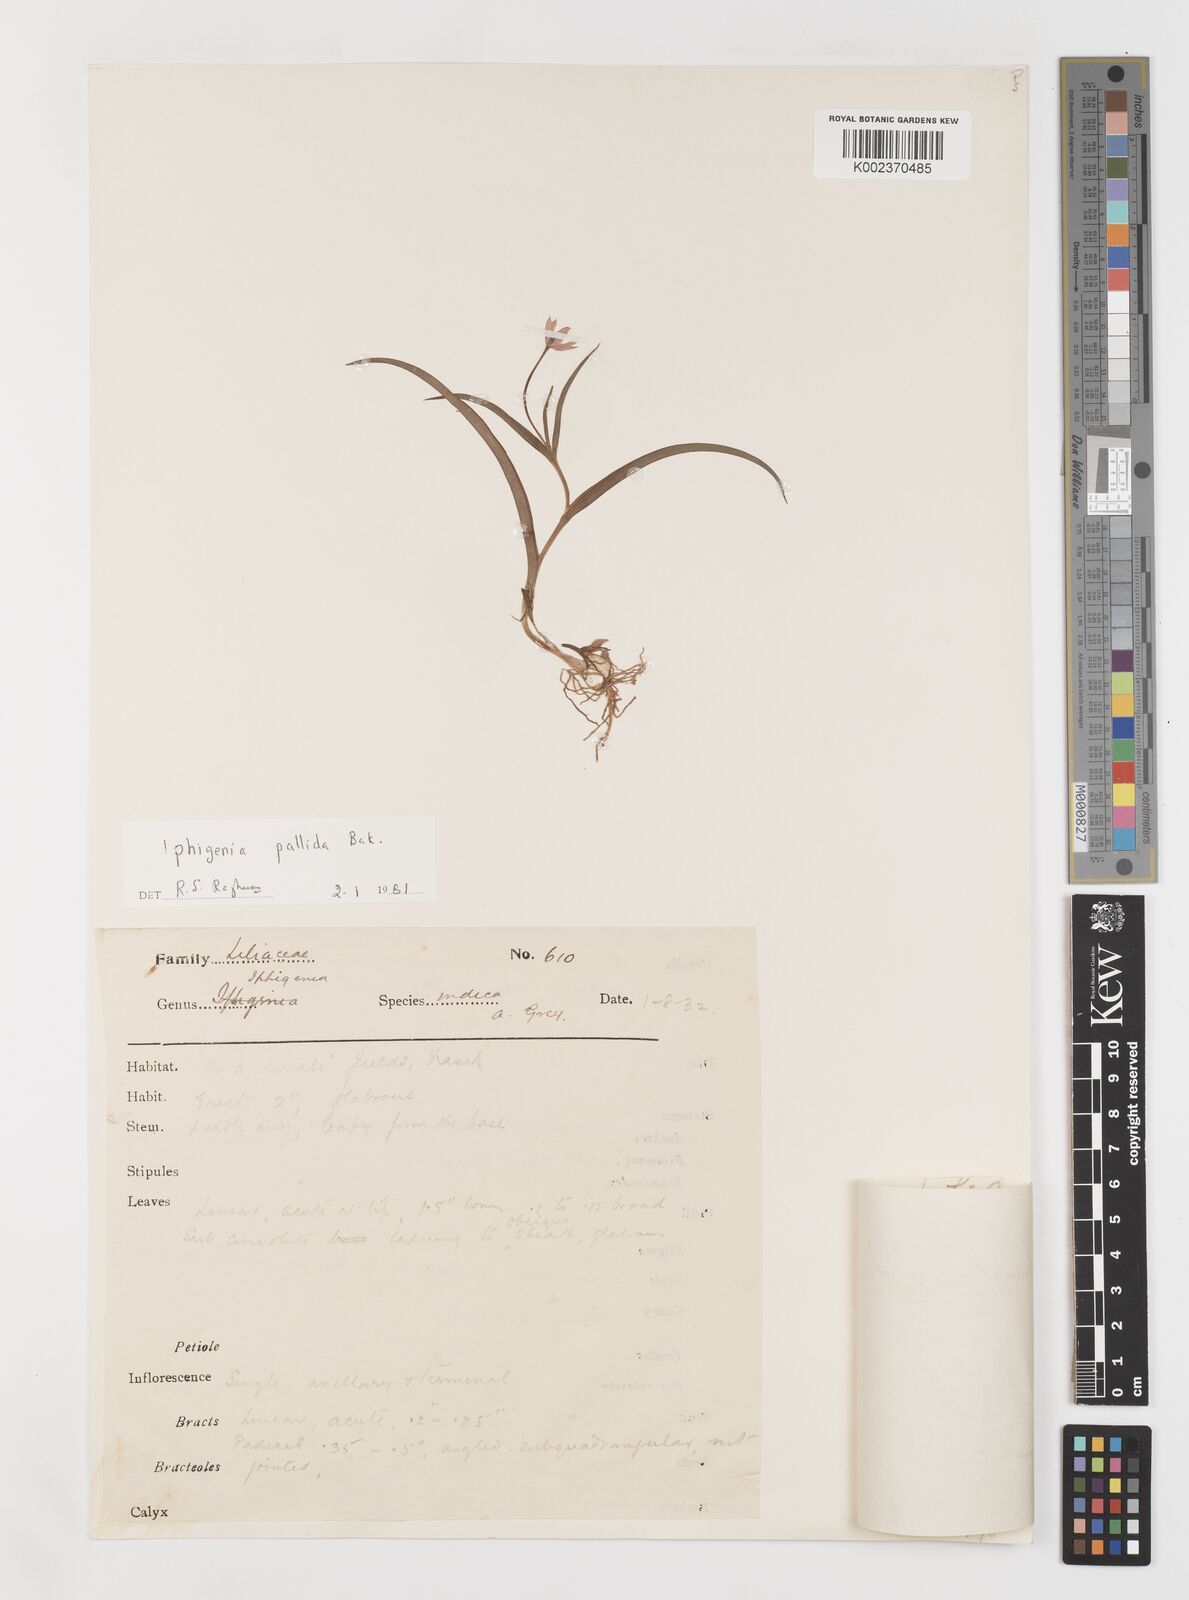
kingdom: Plantae
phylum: Tracheophyta
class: Liliopsida
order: Liliales
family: Colchicaceae
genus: Iphigenia
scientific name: Iphigenia pallida
